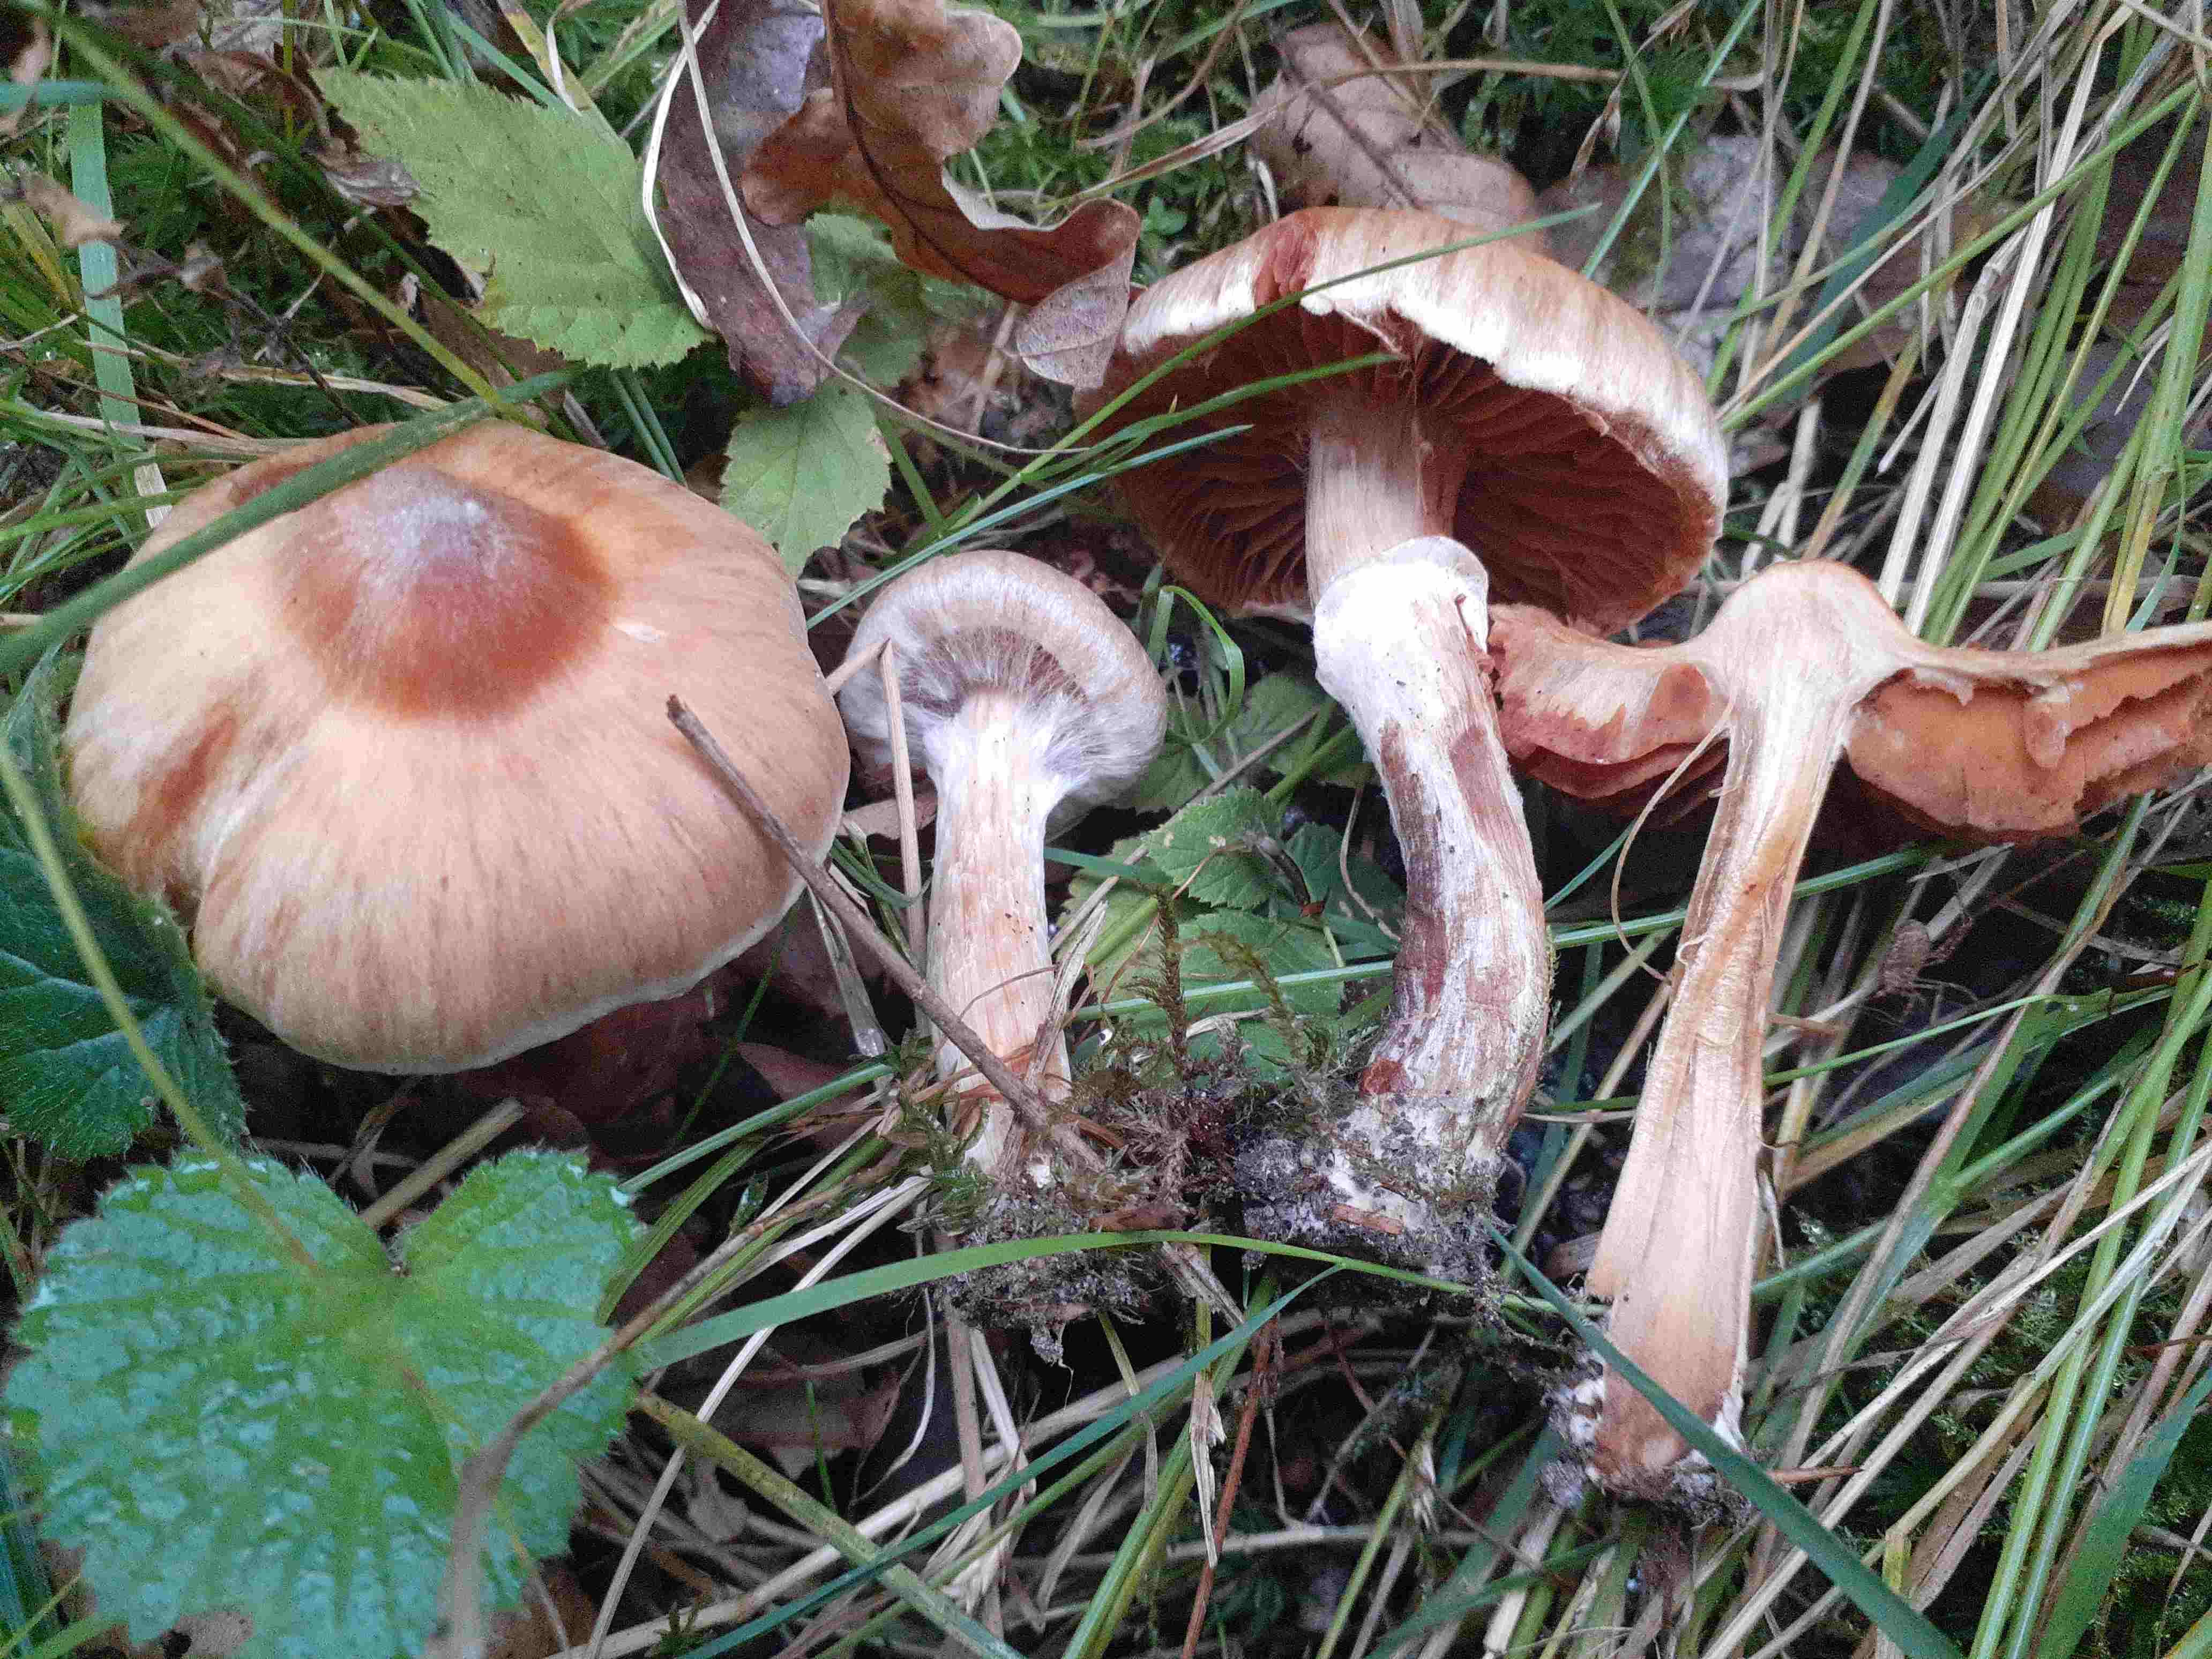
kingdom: Fungi
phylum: Basidiomycota
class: Agaricomycetes
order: Agaricales
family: Cortinariaceae
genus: Cortinarius
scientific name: Cortinarius luridus
